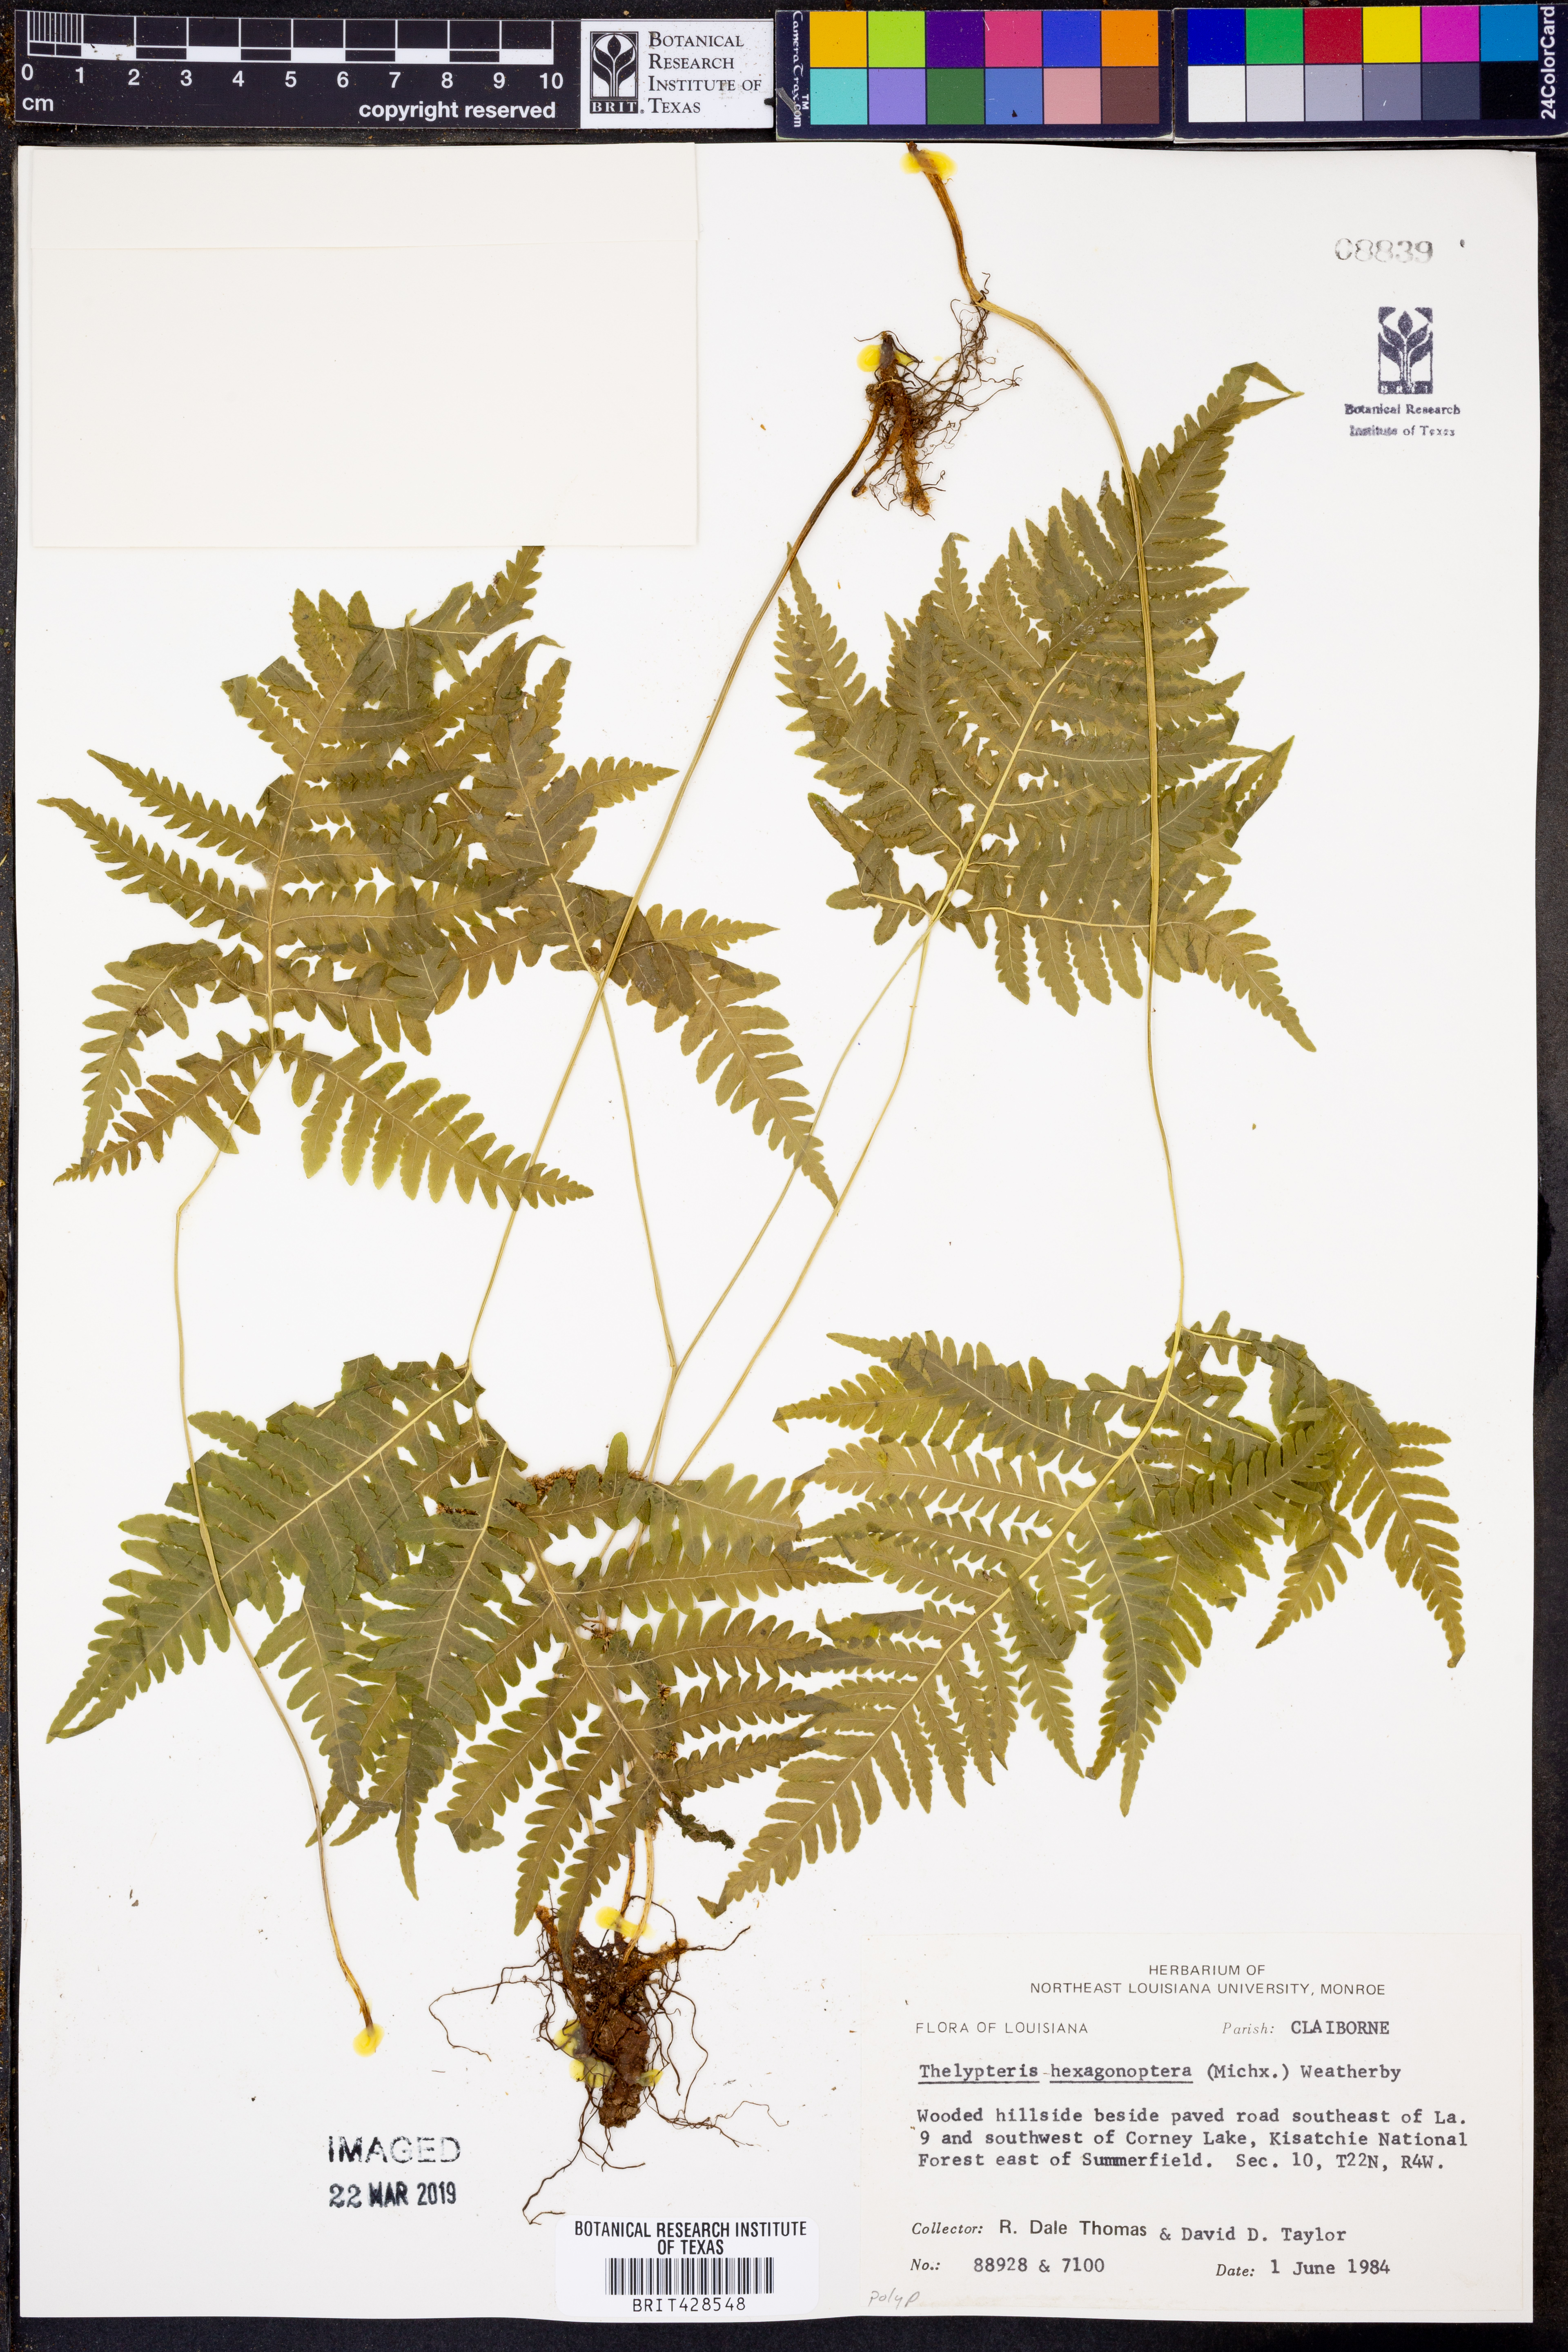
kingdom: Plantae
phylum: Tracheophyta
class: Polypodiopsida
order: Polypodiales
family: Thelypteridaceae
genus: Phegopteris
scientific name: Phegopteris hexagonoptera
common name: Broad beech fern
